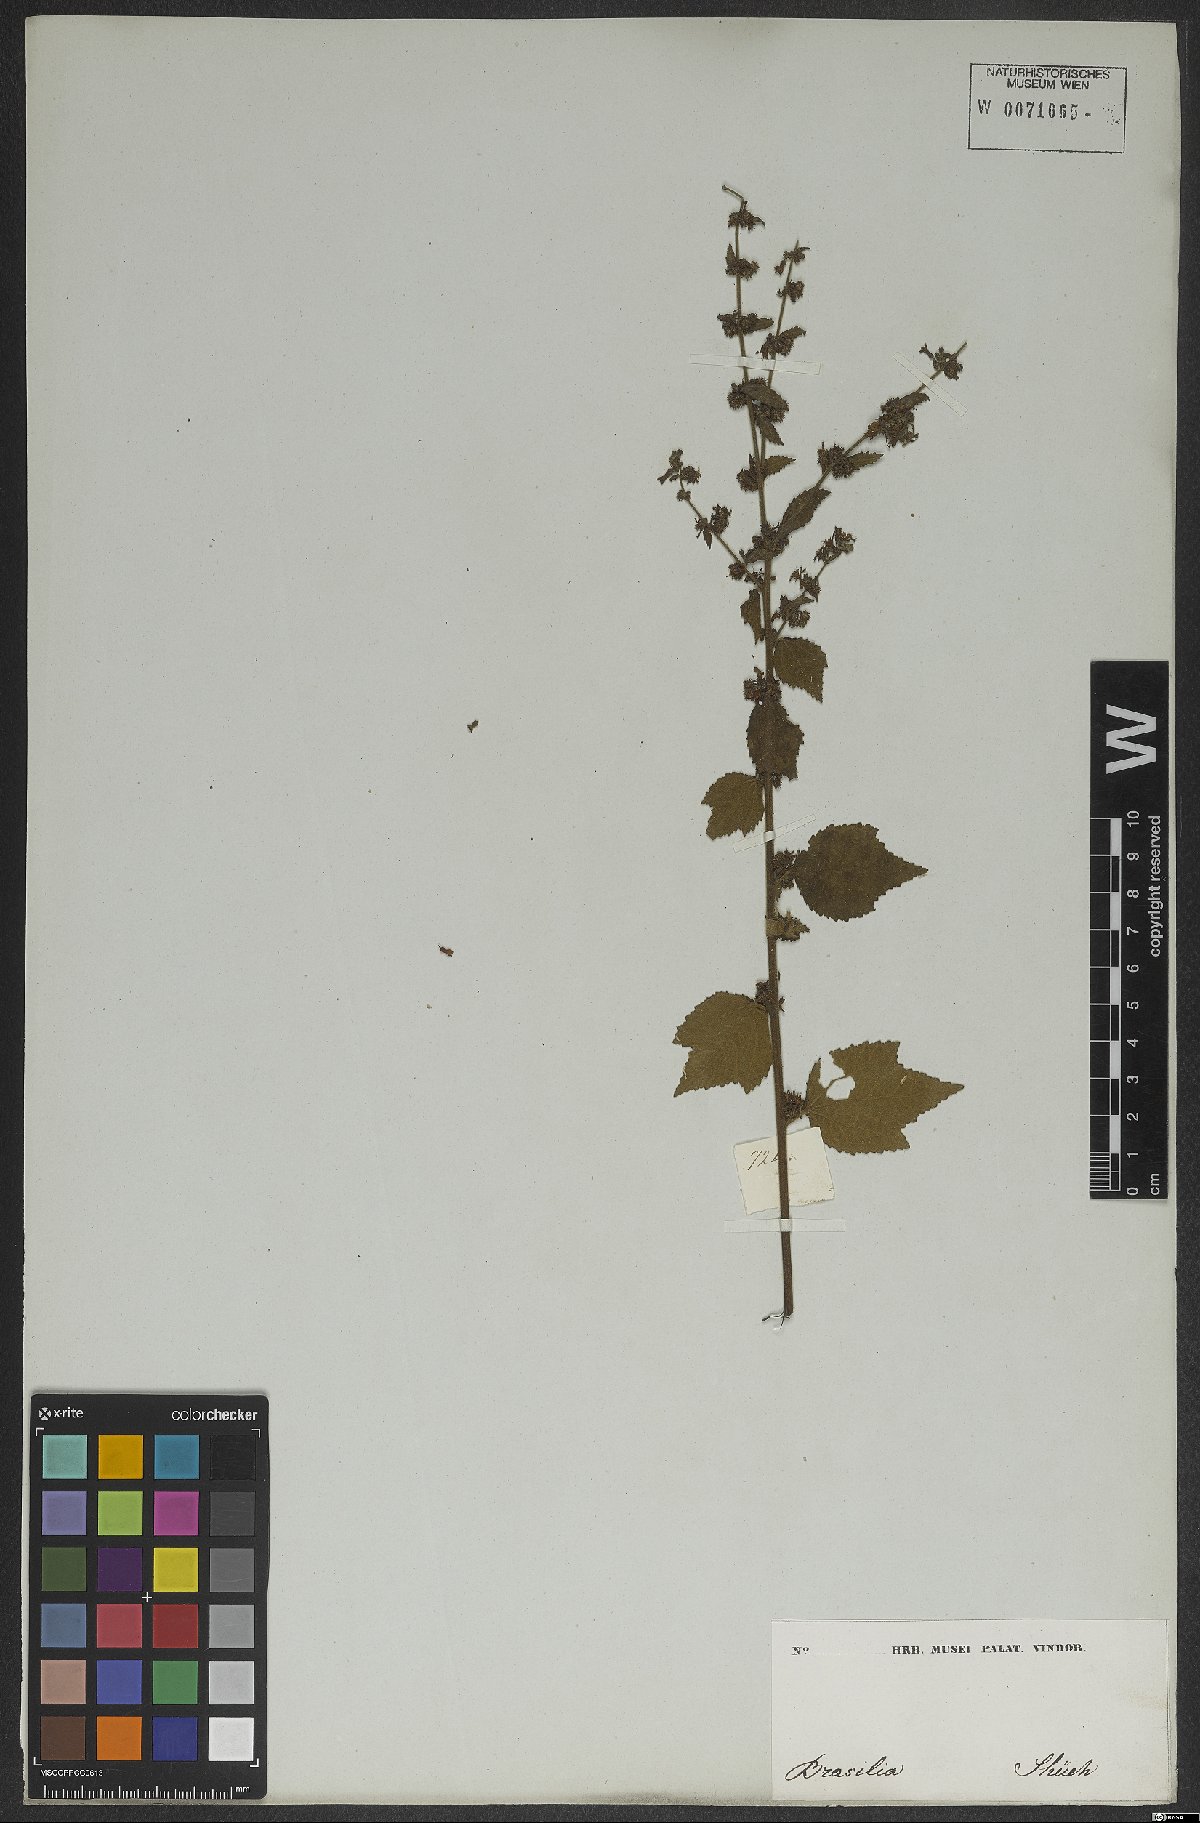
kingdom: Plantae
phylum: Tracheophyta
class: Magnoliopsida
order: Malvales
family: Malvaceae
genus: Triumfetta
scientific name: Triumfetta rhomboidea
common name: Diamond burbark
